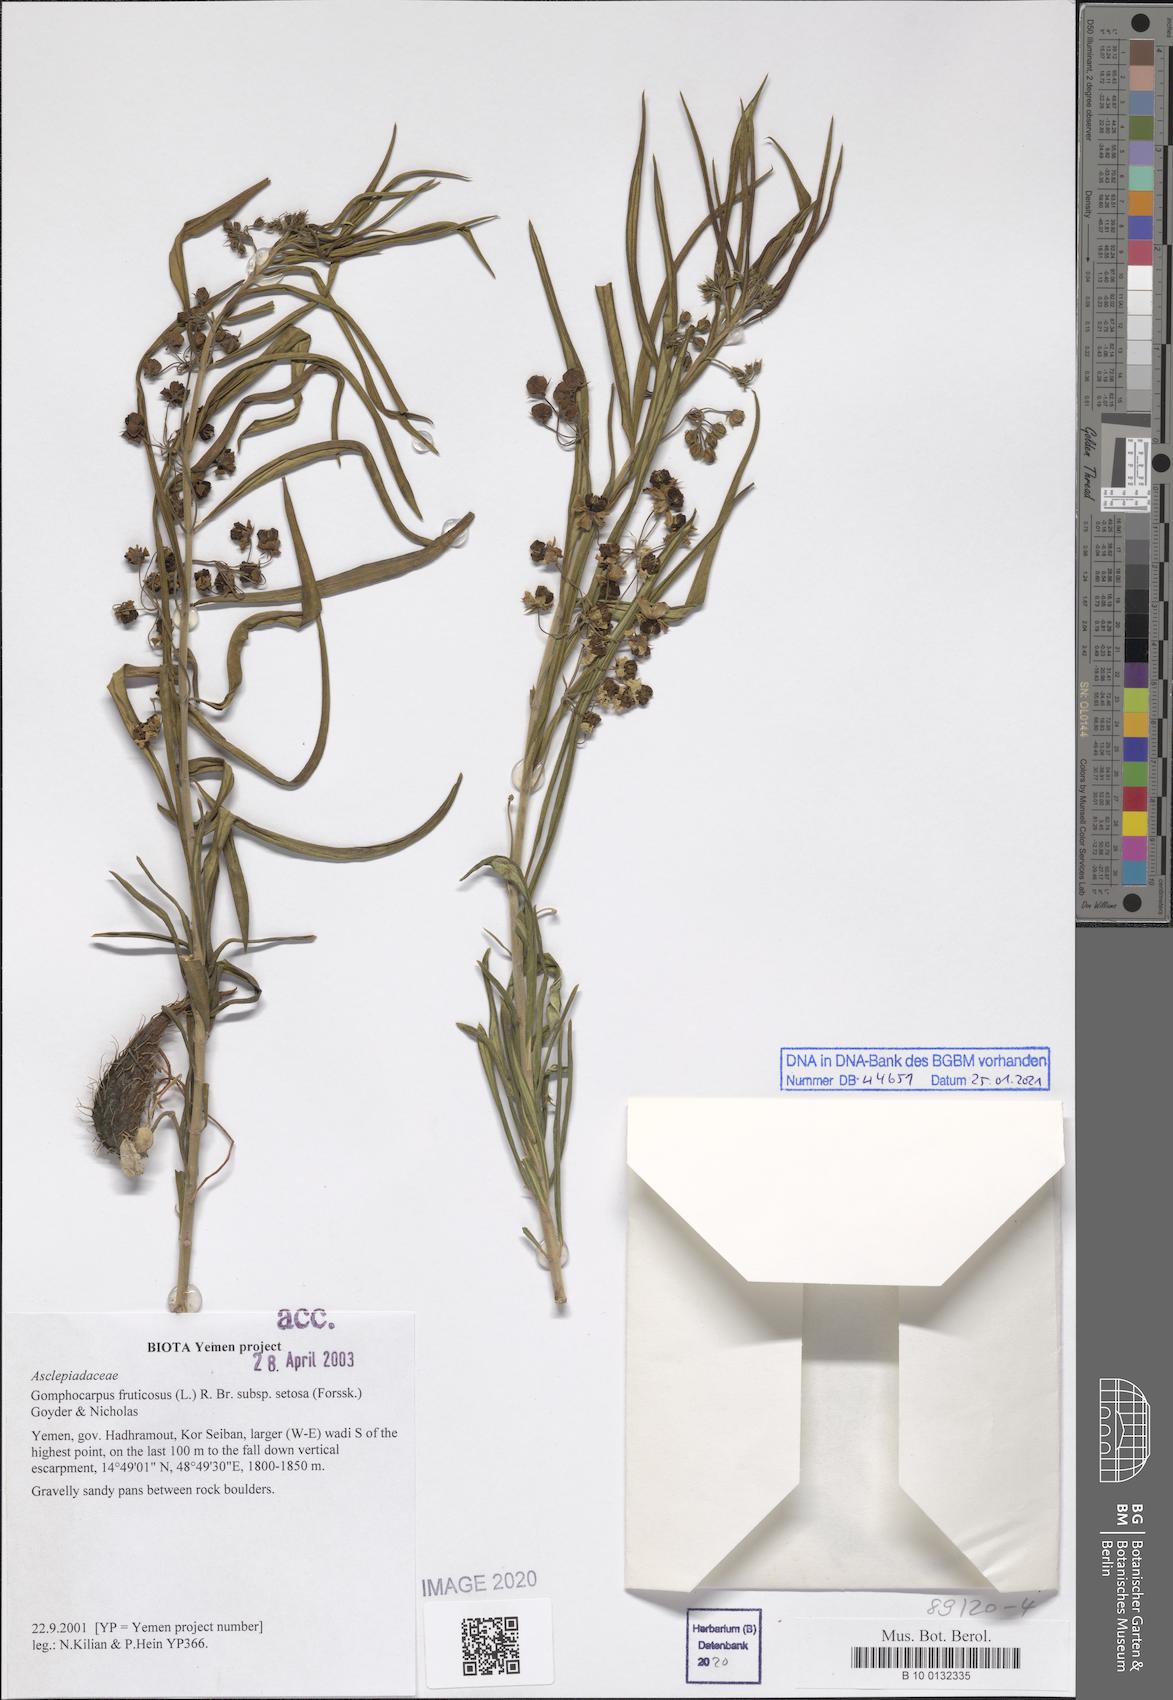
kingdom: Plantae
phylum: Tracheophyta
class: Magnoliopsida
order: Gentianales
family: Apocynaceae
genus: Gomphocarpus
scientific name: Gomphocarpus fruticosus
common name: Milkweed
